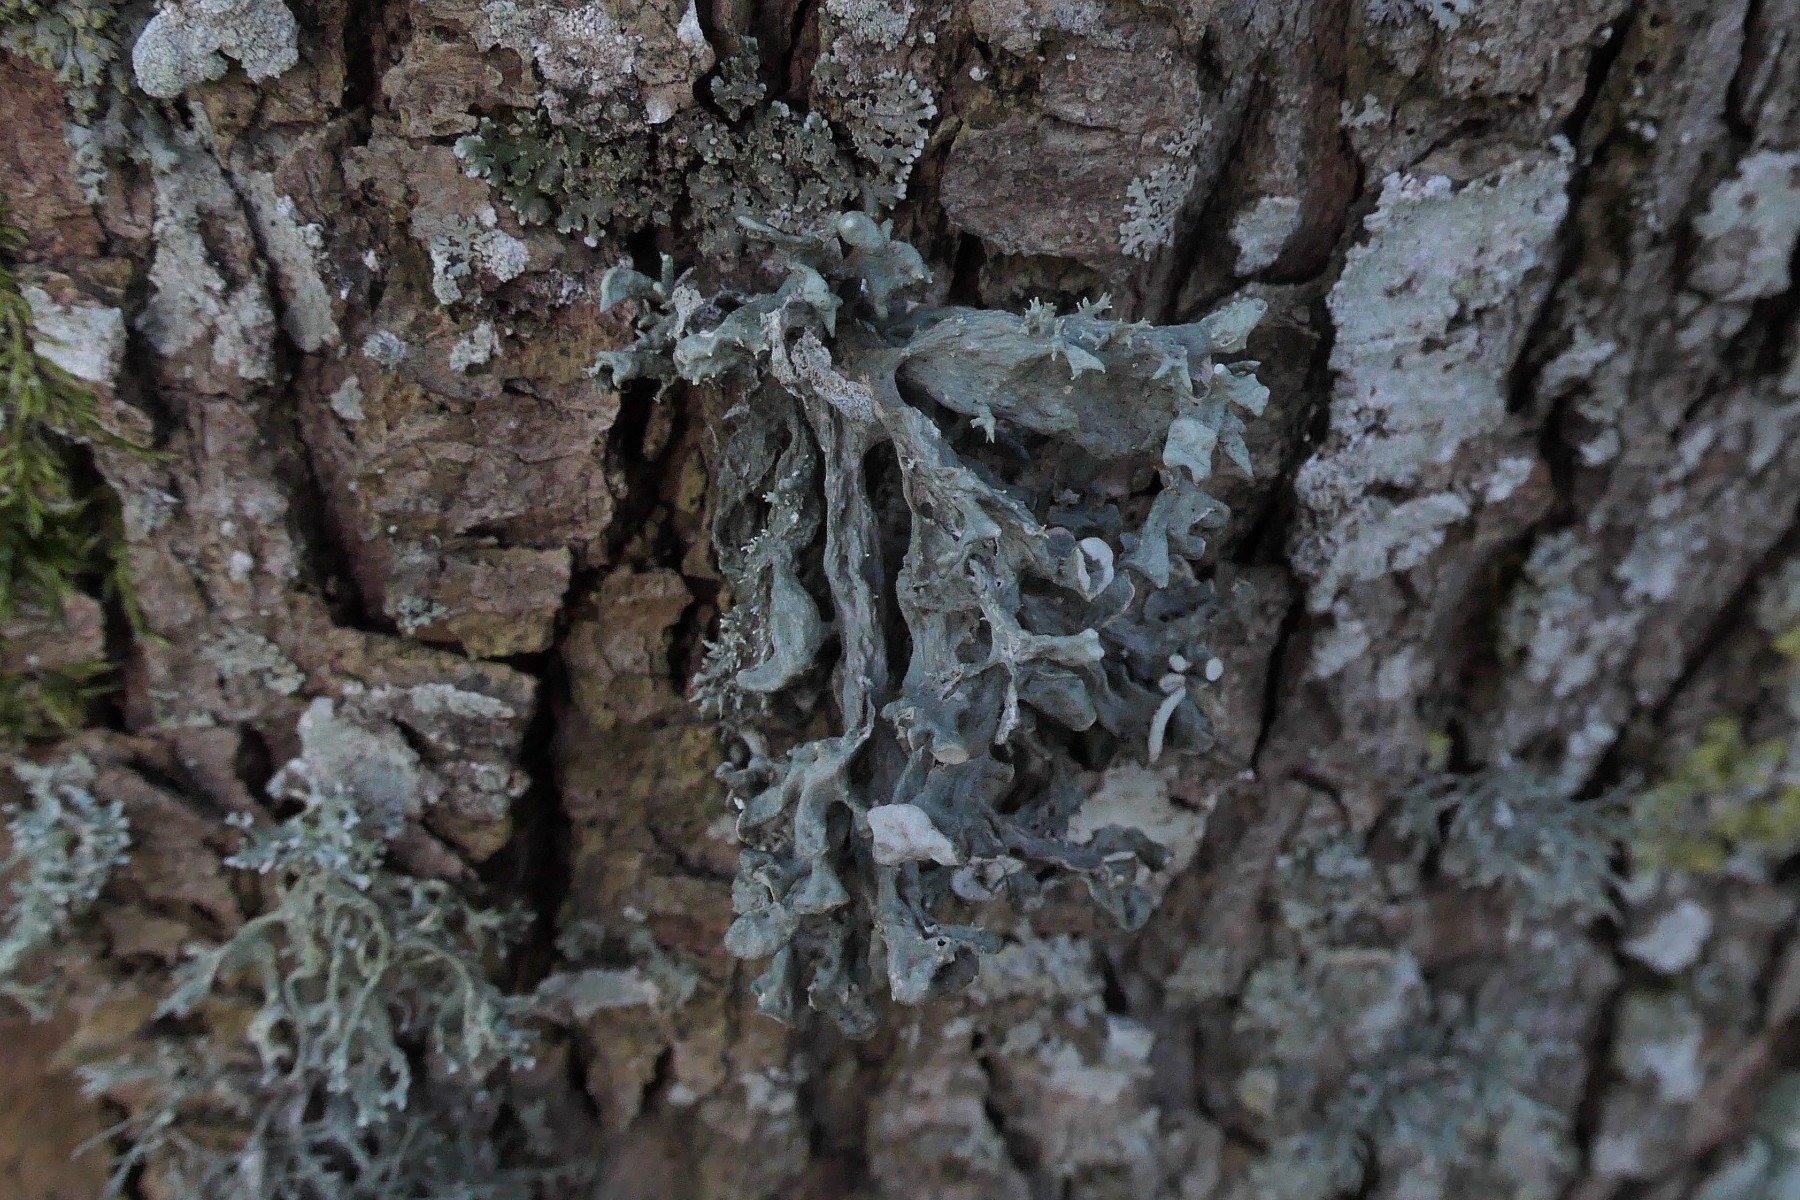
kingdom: Fungi
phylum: Ascomycota
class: Lecanoromycetes
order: Lecanorales
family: Ramalinaceae
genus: Ramalina
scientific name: Ramalina fastigiata
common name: tue-grenlav
